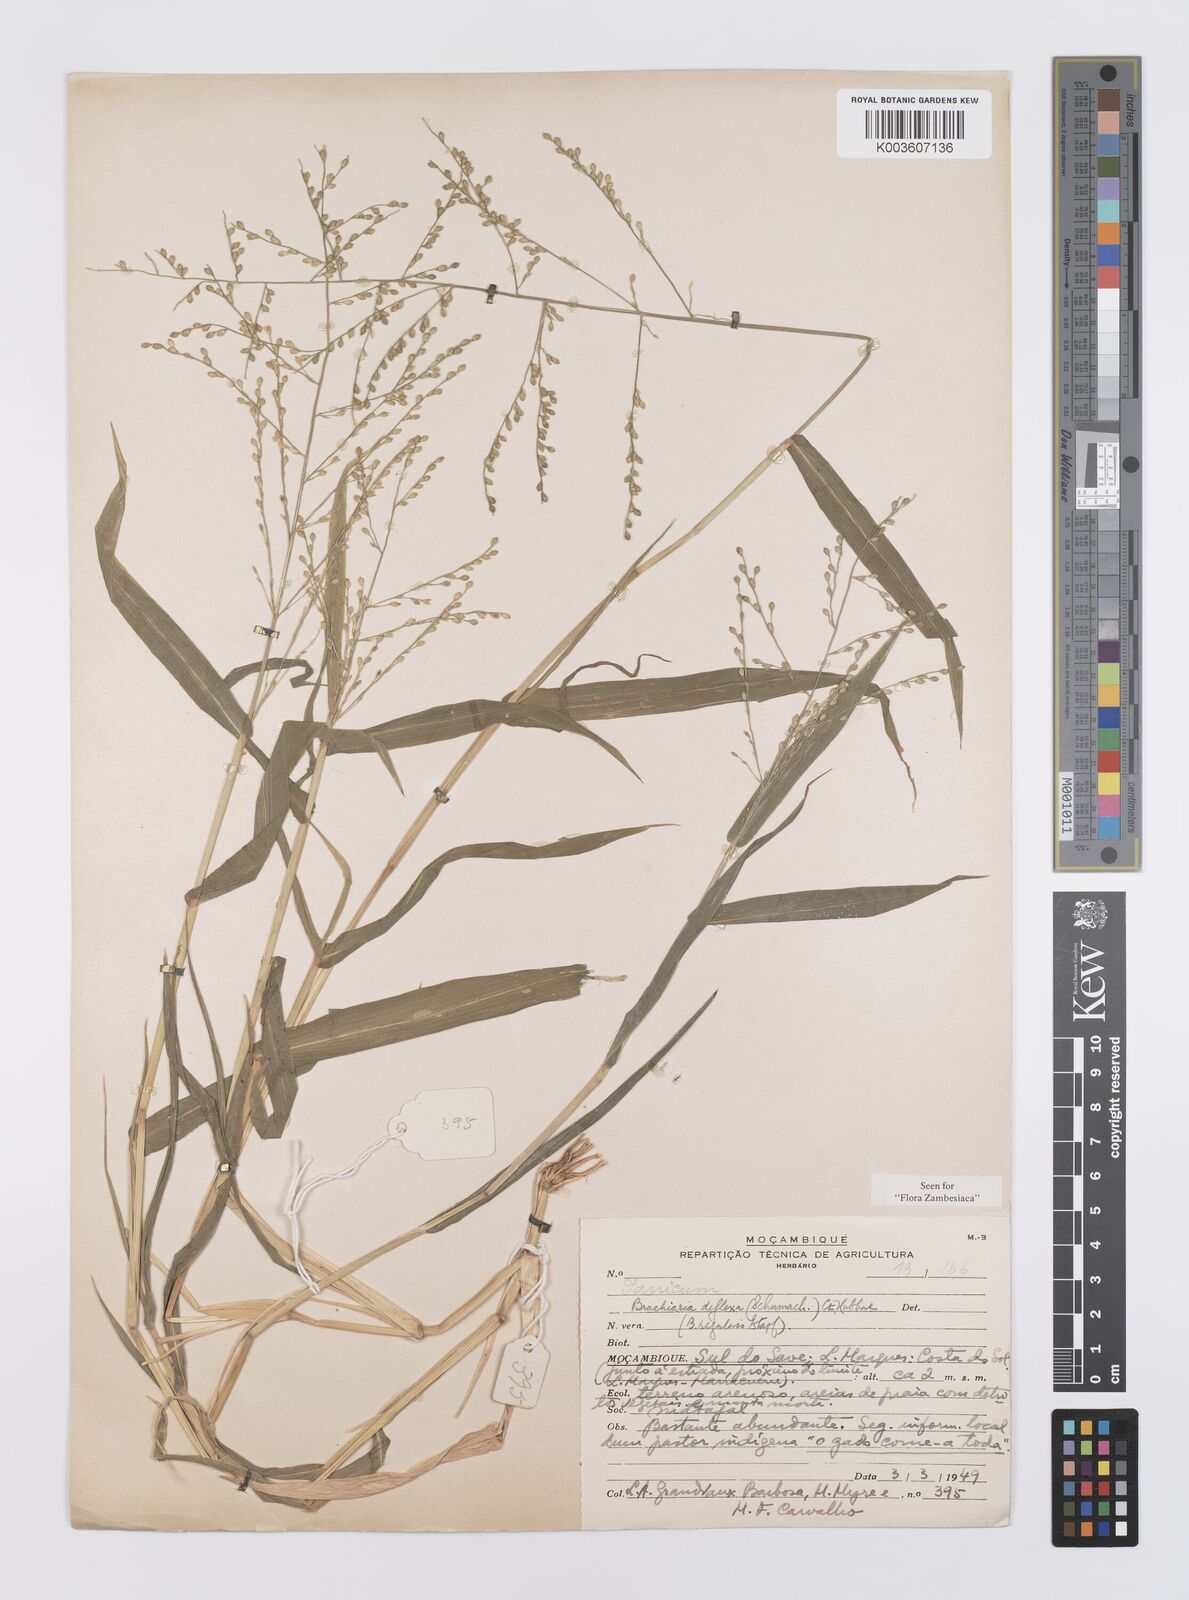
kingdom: Plantae
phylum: Tracheophyta
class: Liliopsida
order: Poales
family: Poaceae
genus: Urochloa
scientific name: Urochloa deflexa
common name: Guinea millet
